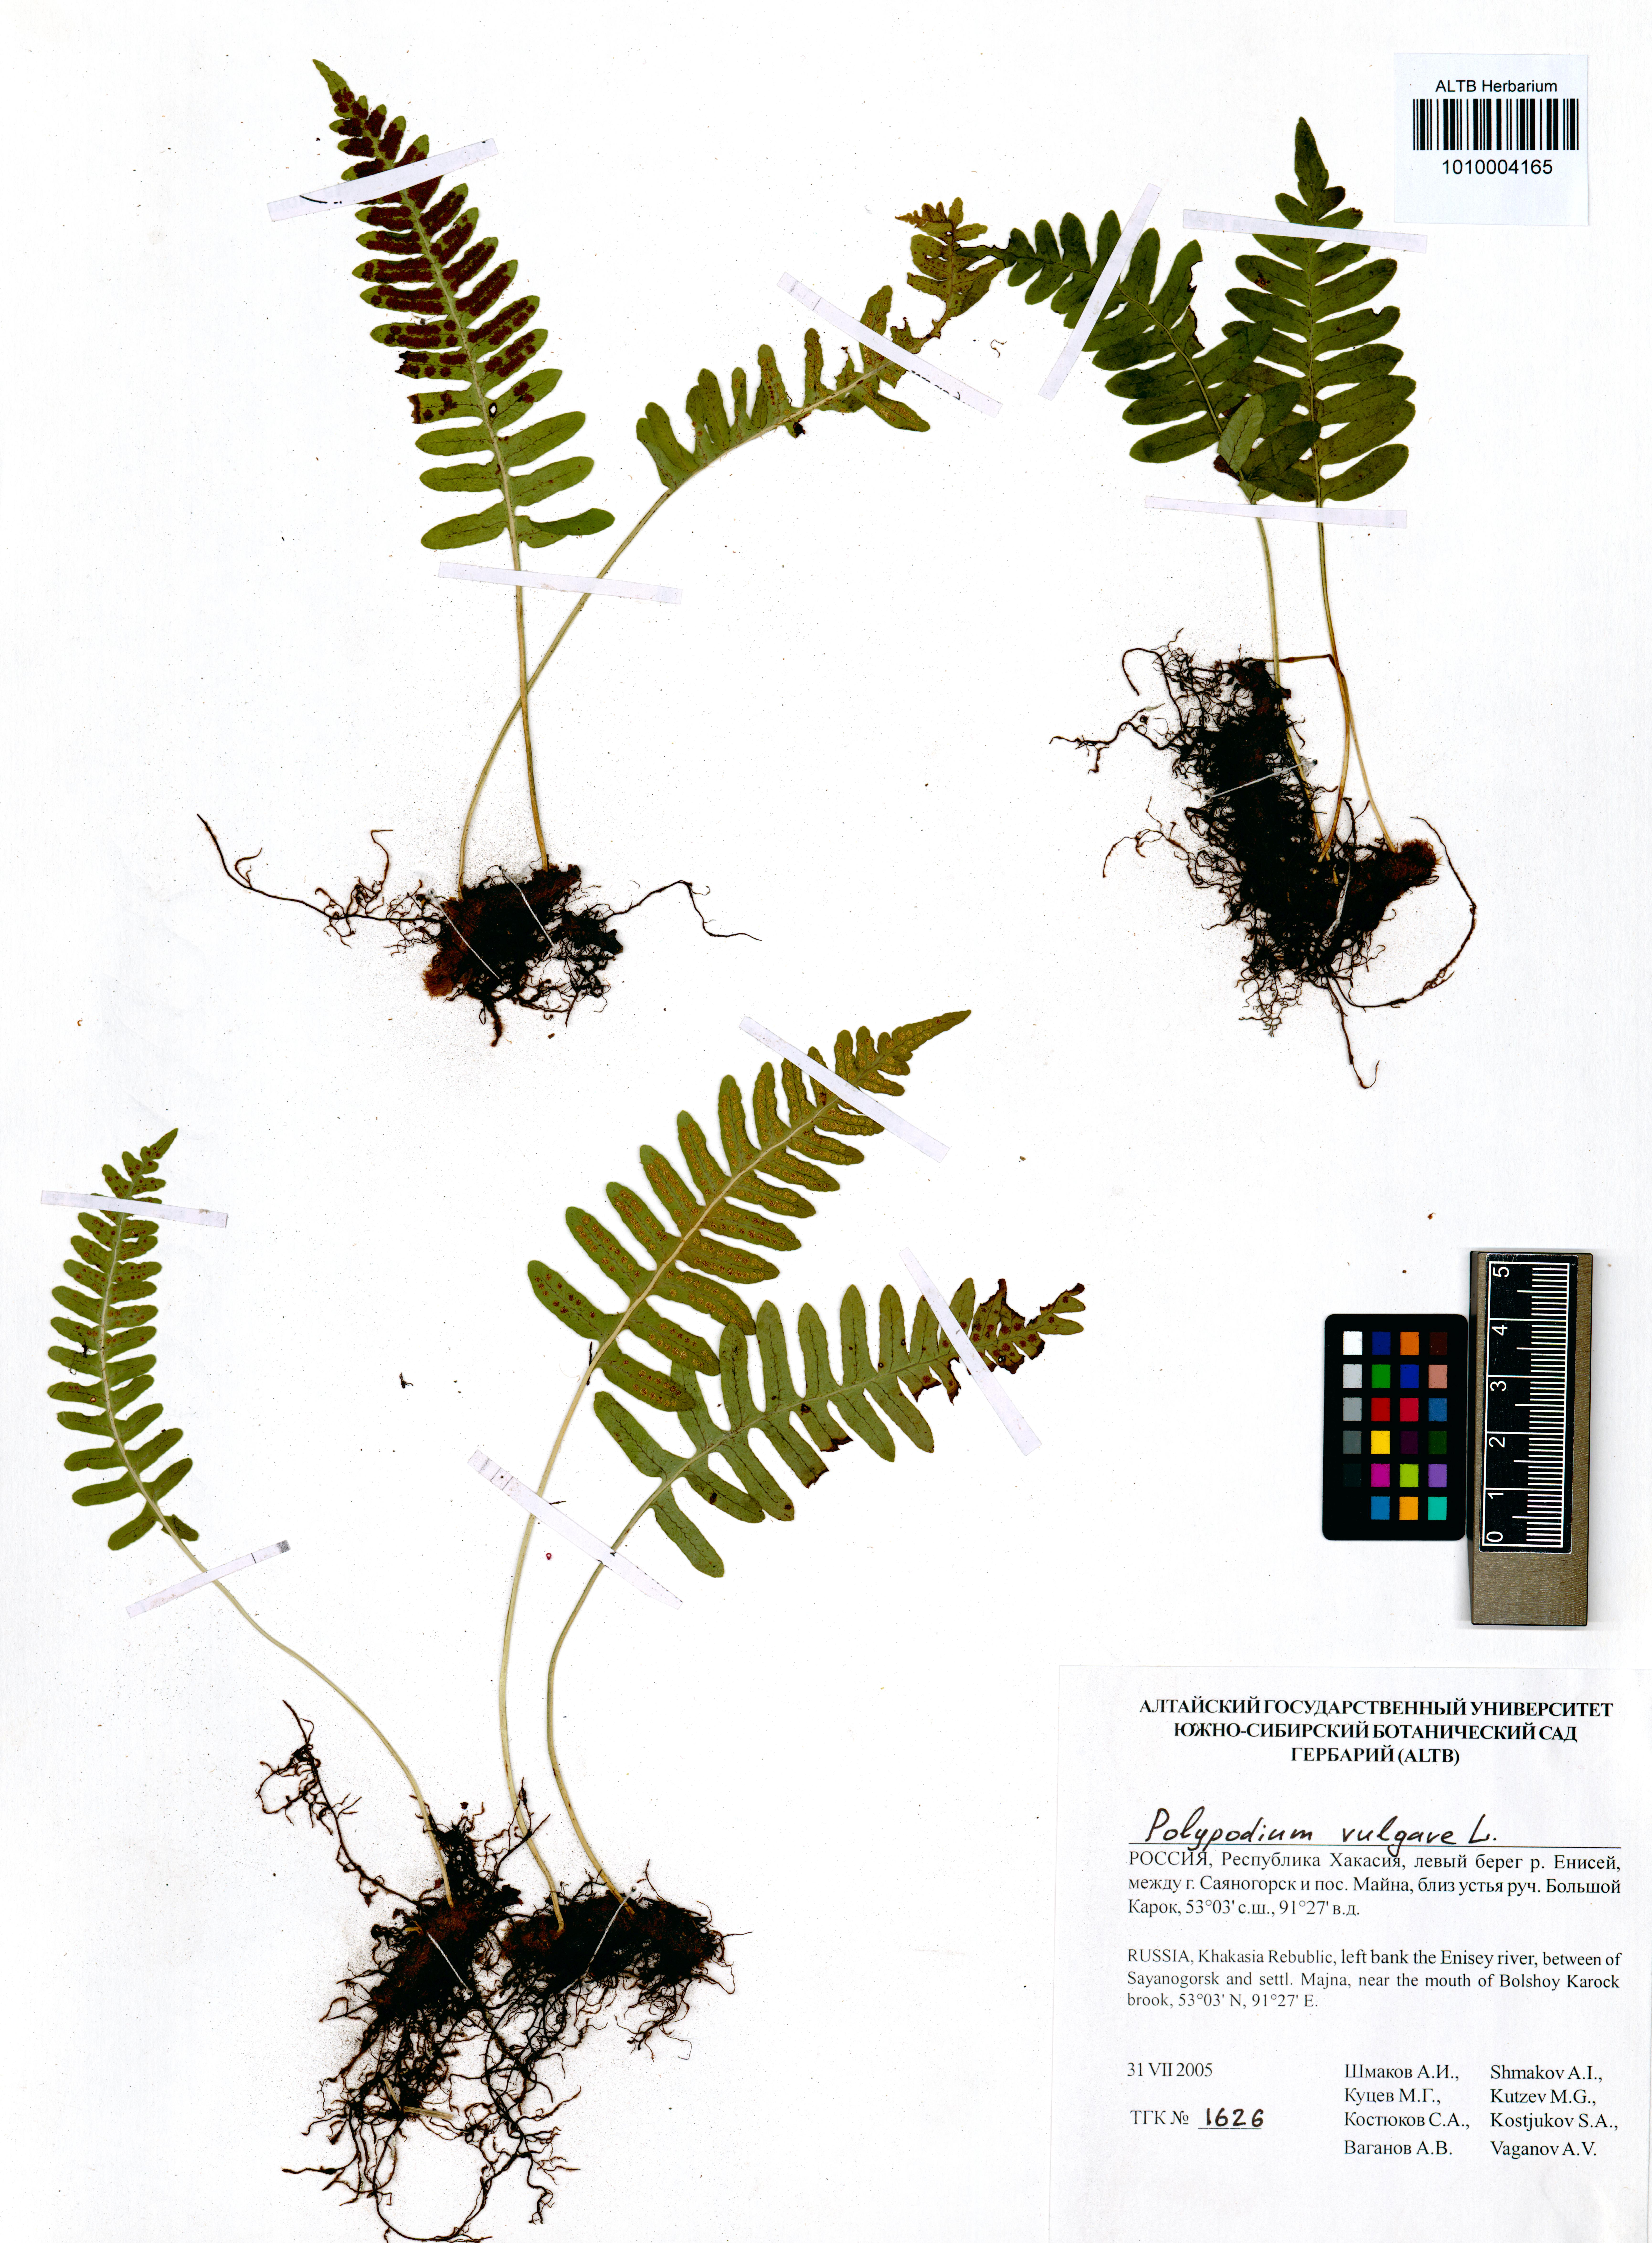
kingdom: Plantae
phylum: Tracheophyta
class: Polypodiopsida
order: Polypodiales
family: Polypodiaceae
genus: Polypodium
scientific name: Polypodium vulgare
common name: Common polypody
